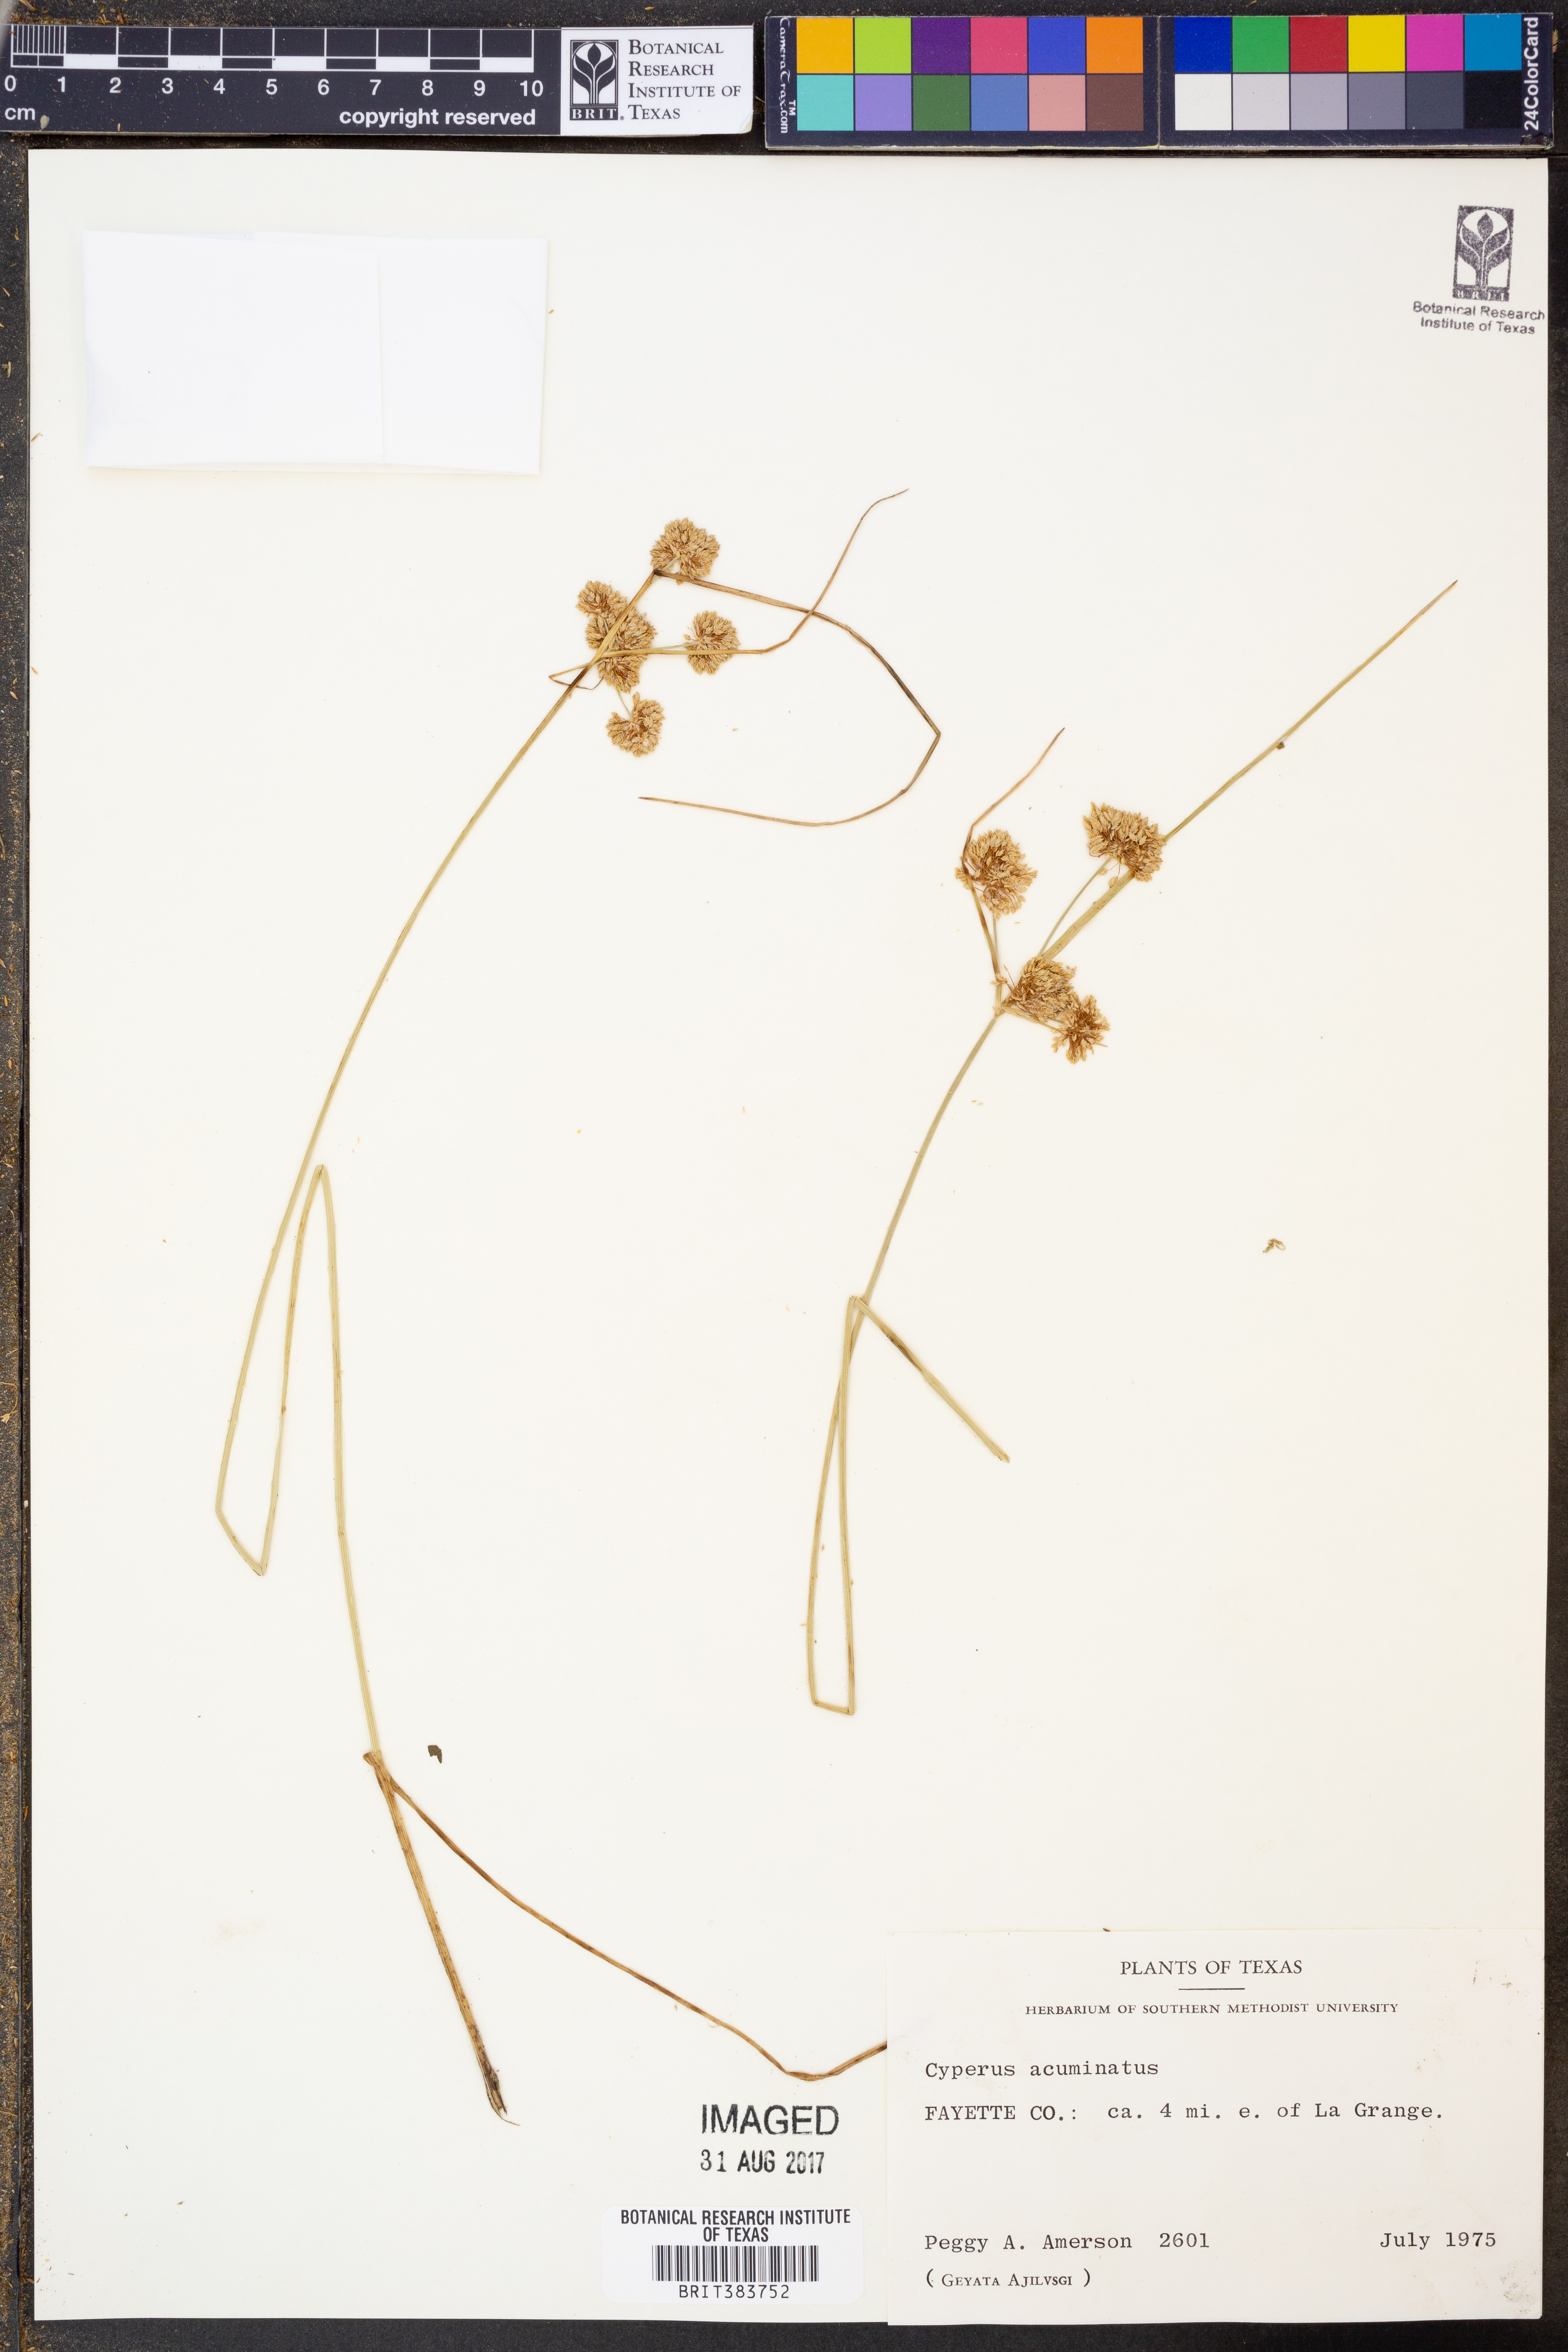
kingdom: Plantae
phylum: Tracheophyta
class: Liliopsida
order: Poales
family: Cyperaceae
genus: Cyperus
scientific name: Cyperus acuminatus
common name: Short-pointed cyperus
